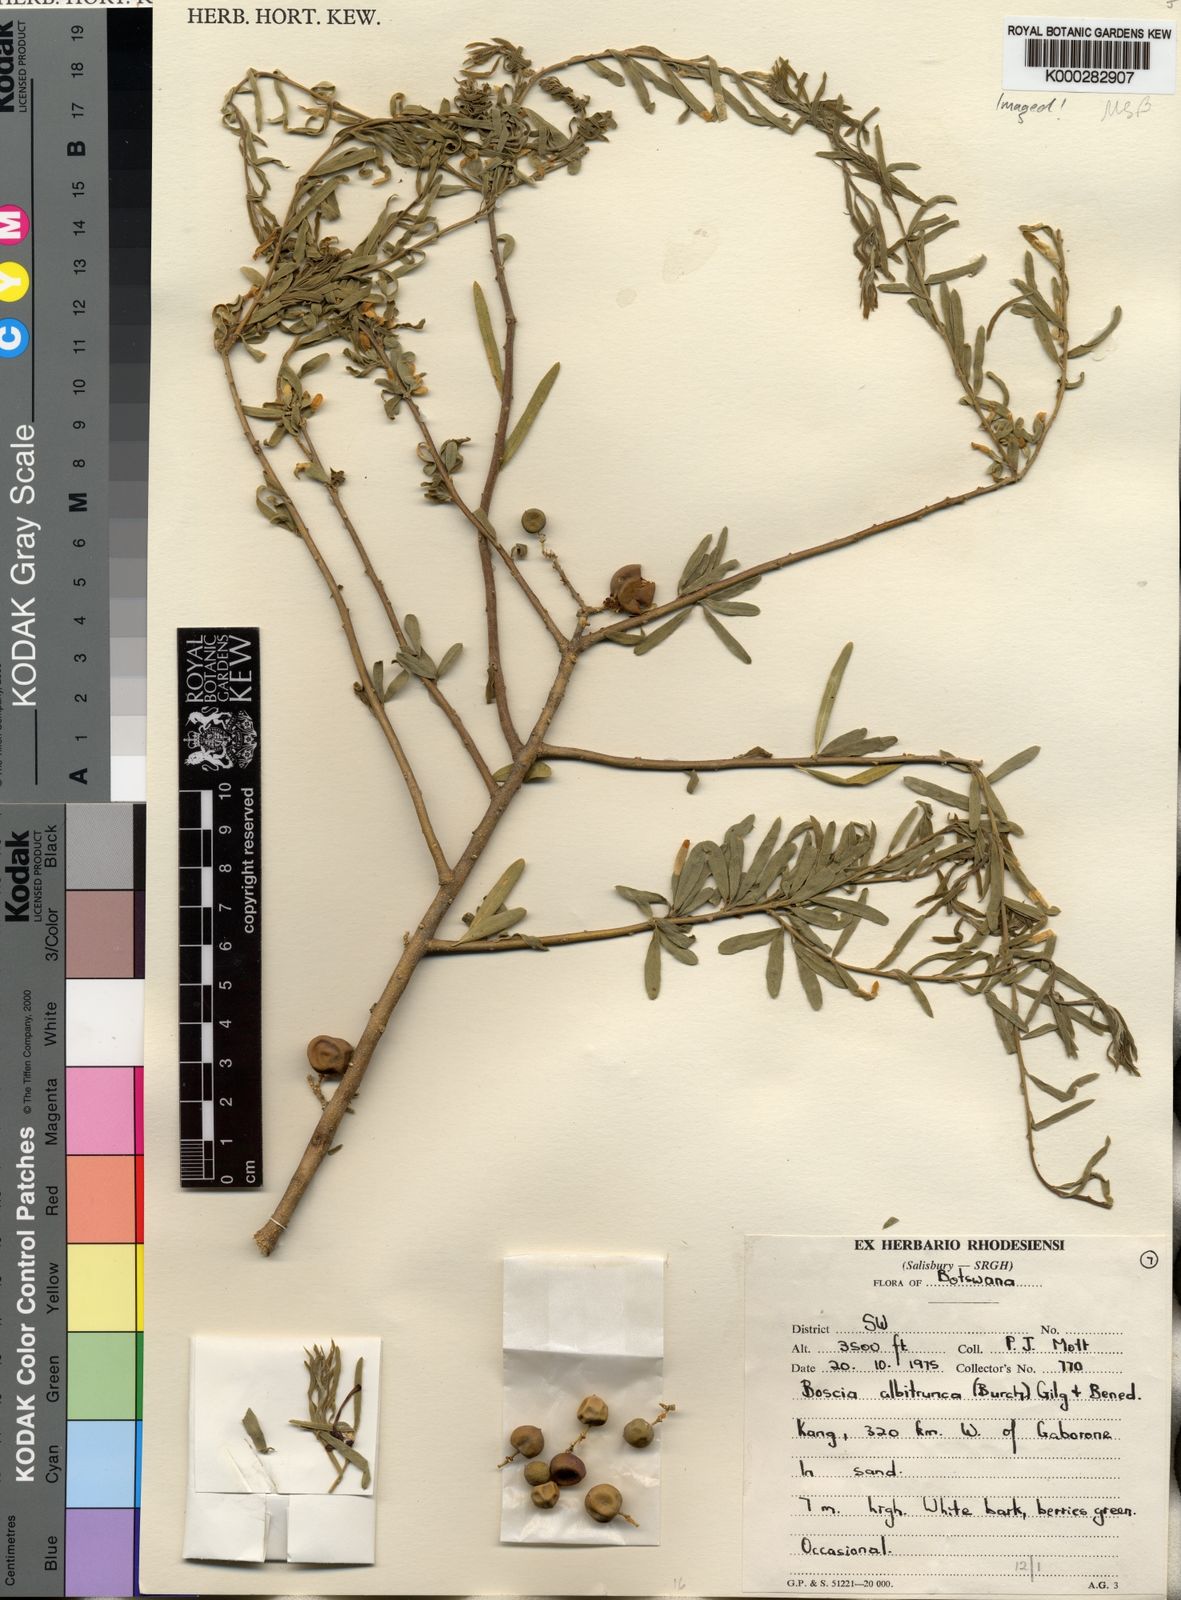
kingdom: Plantae
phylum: Tracheophyta
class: Magnoliopsida
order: Brassicales
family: Capparaceae
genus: Boscia
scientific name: Boscia albitrunca
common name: Caper bush
